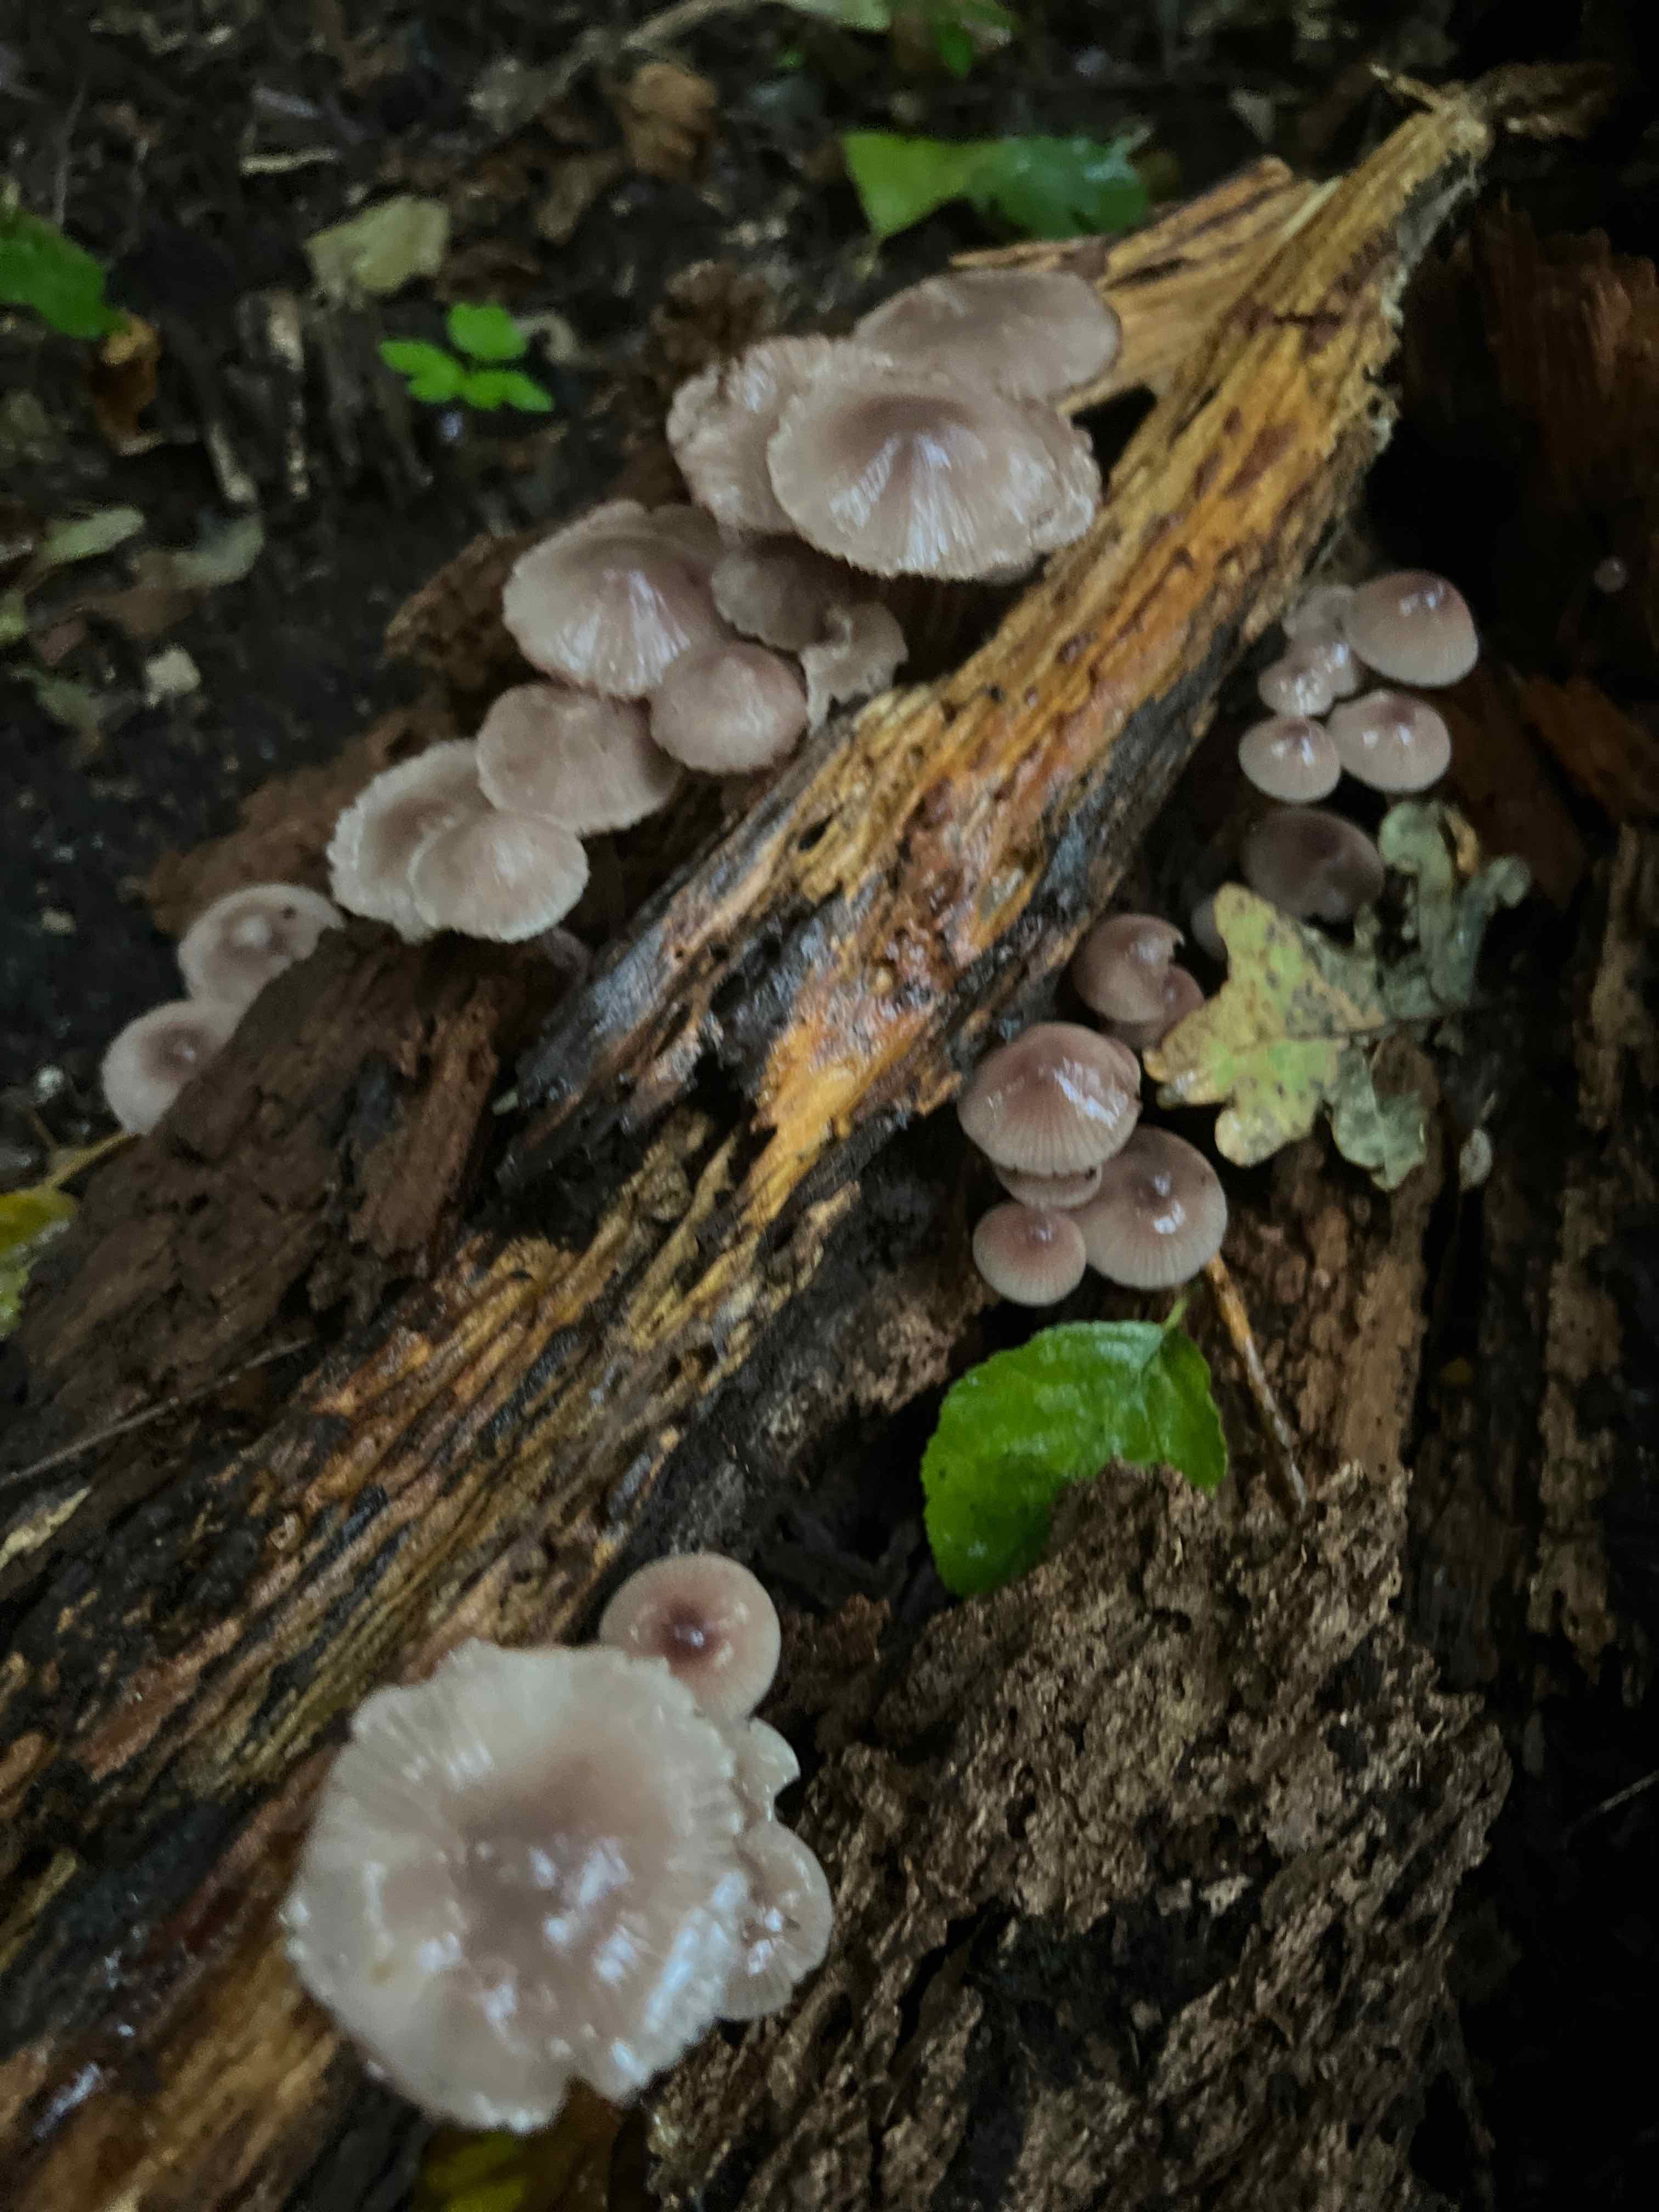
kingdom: Fungi
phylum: Basidiomycota
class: Agaricomycetes
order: Agaricales
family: Mycenaceae
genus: Mycena
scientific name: Mycena
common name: huesvamp
